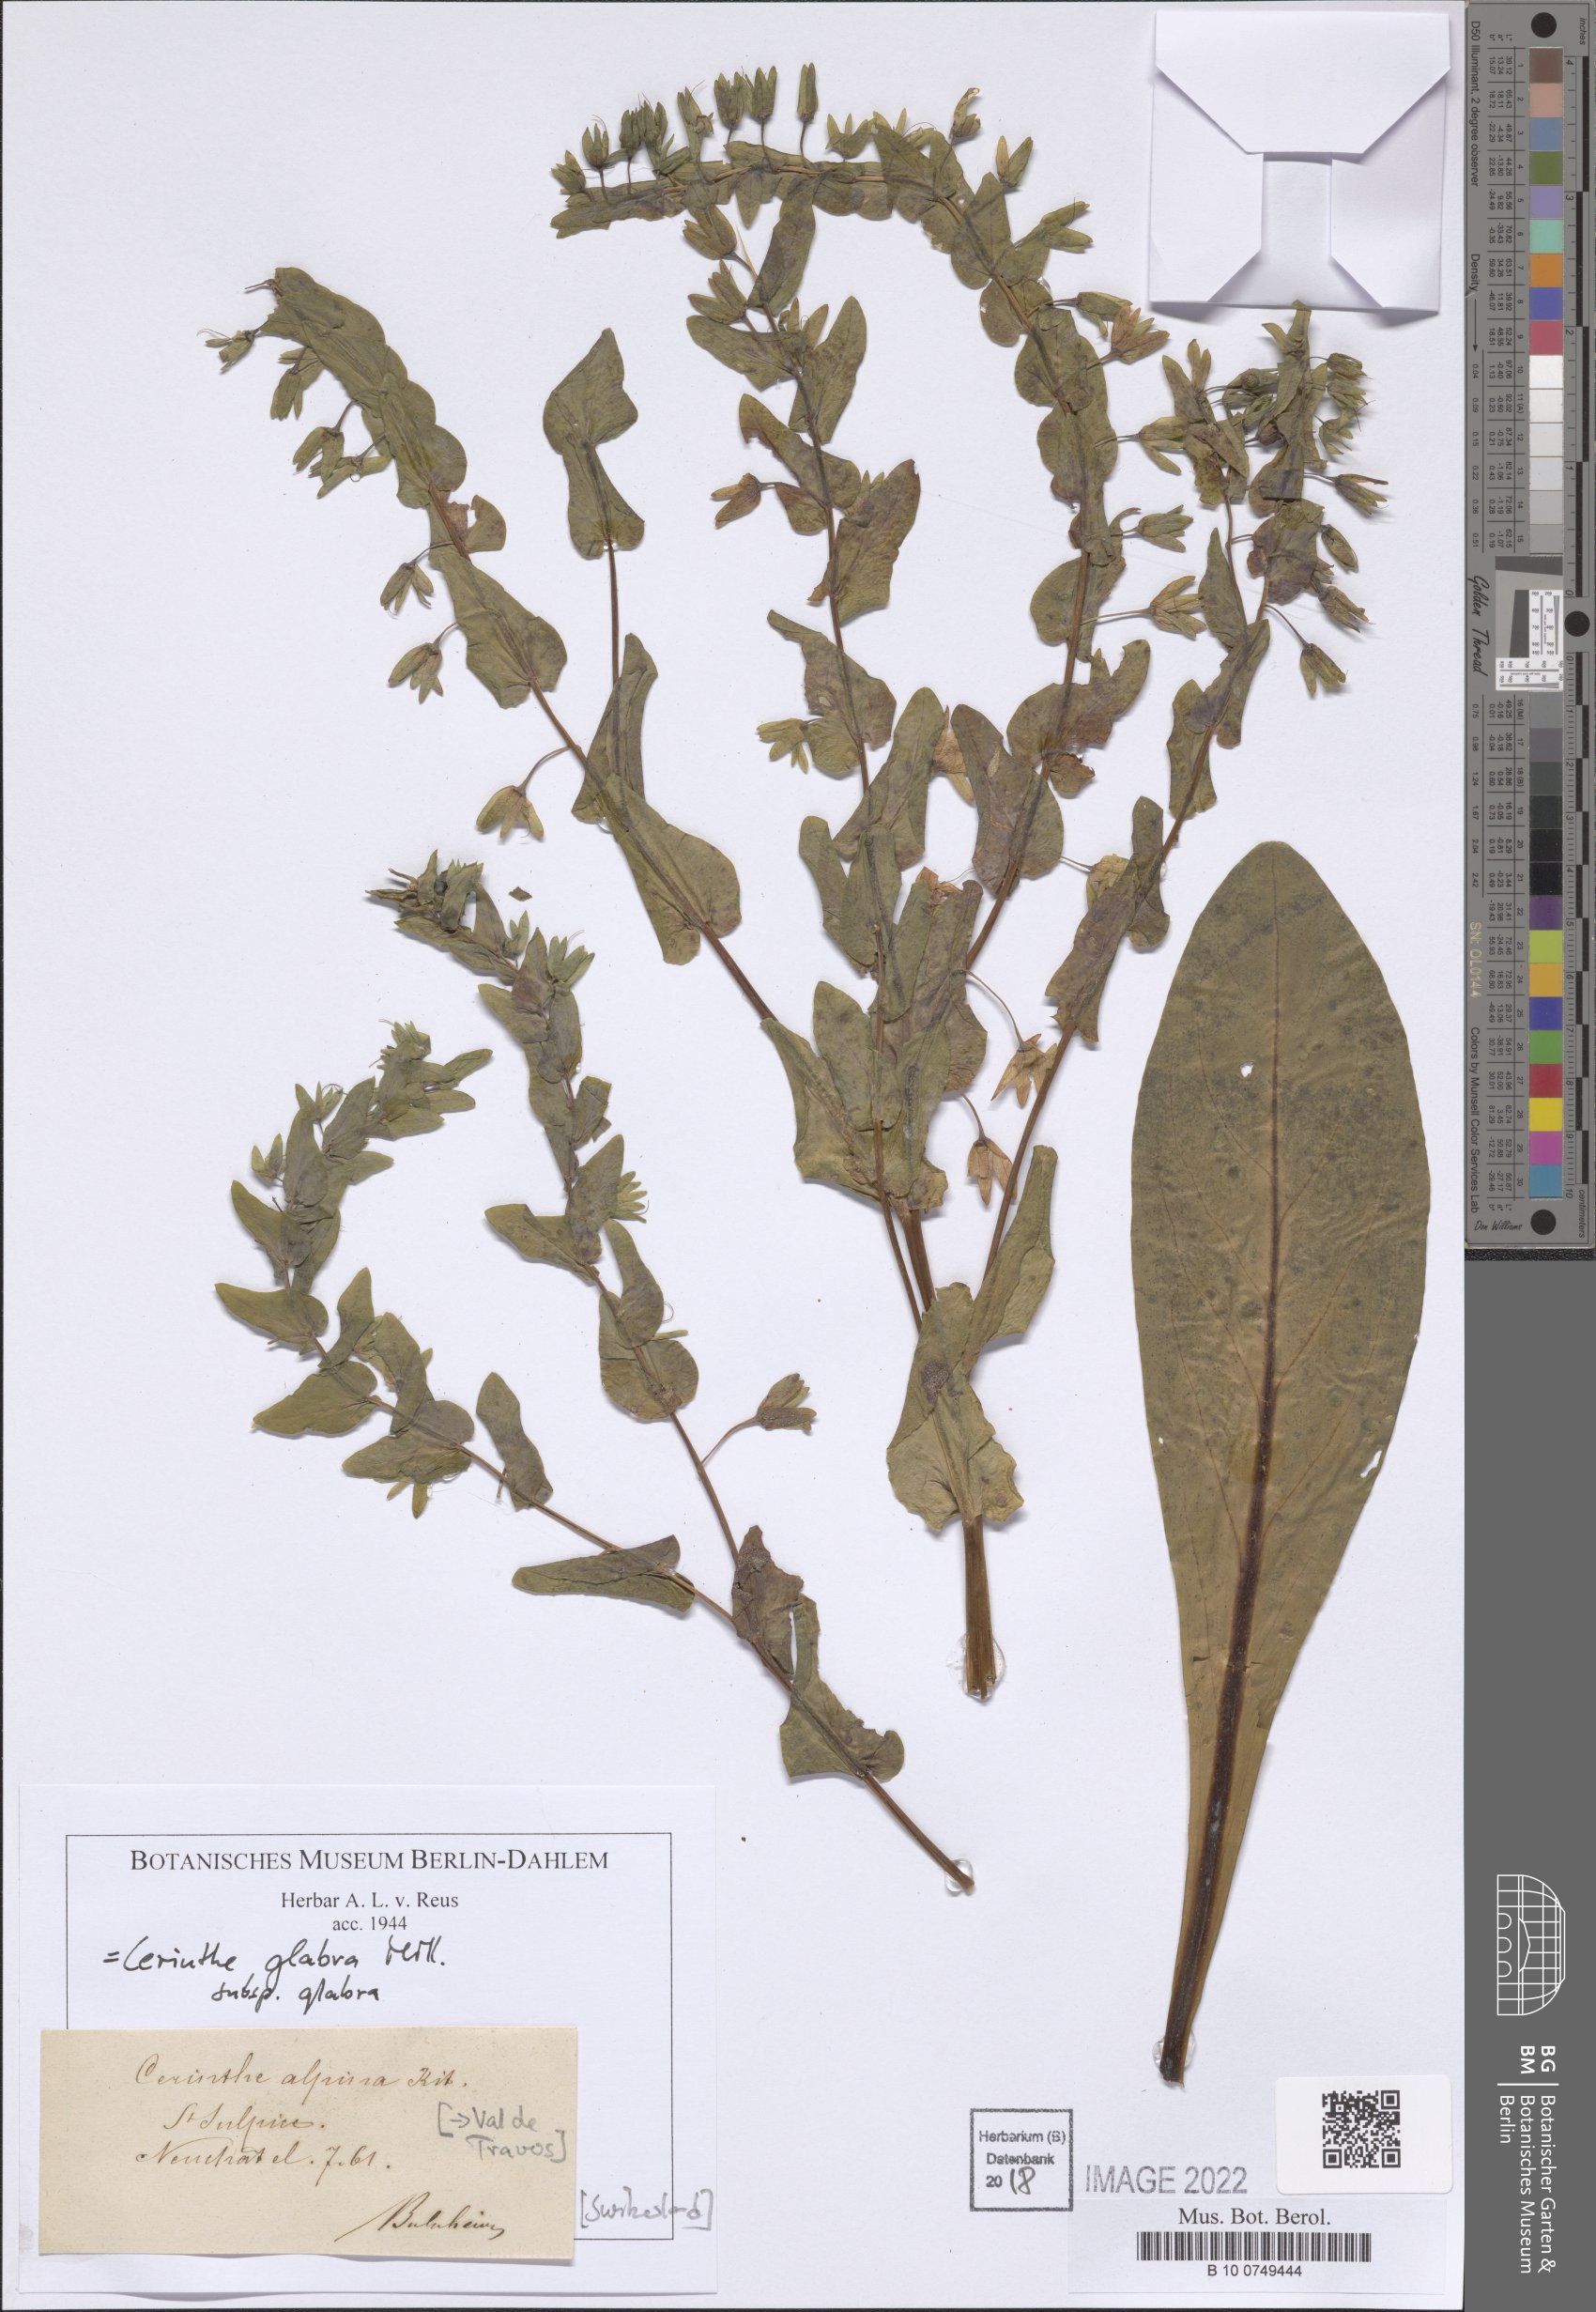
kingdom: Plantae
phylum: Tracheophyta
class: Magnoliopsida
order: Boraginales
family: Boraginaceae
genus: Cerinthe
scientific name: Cerinthe glabra
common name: Smooth honeywort
